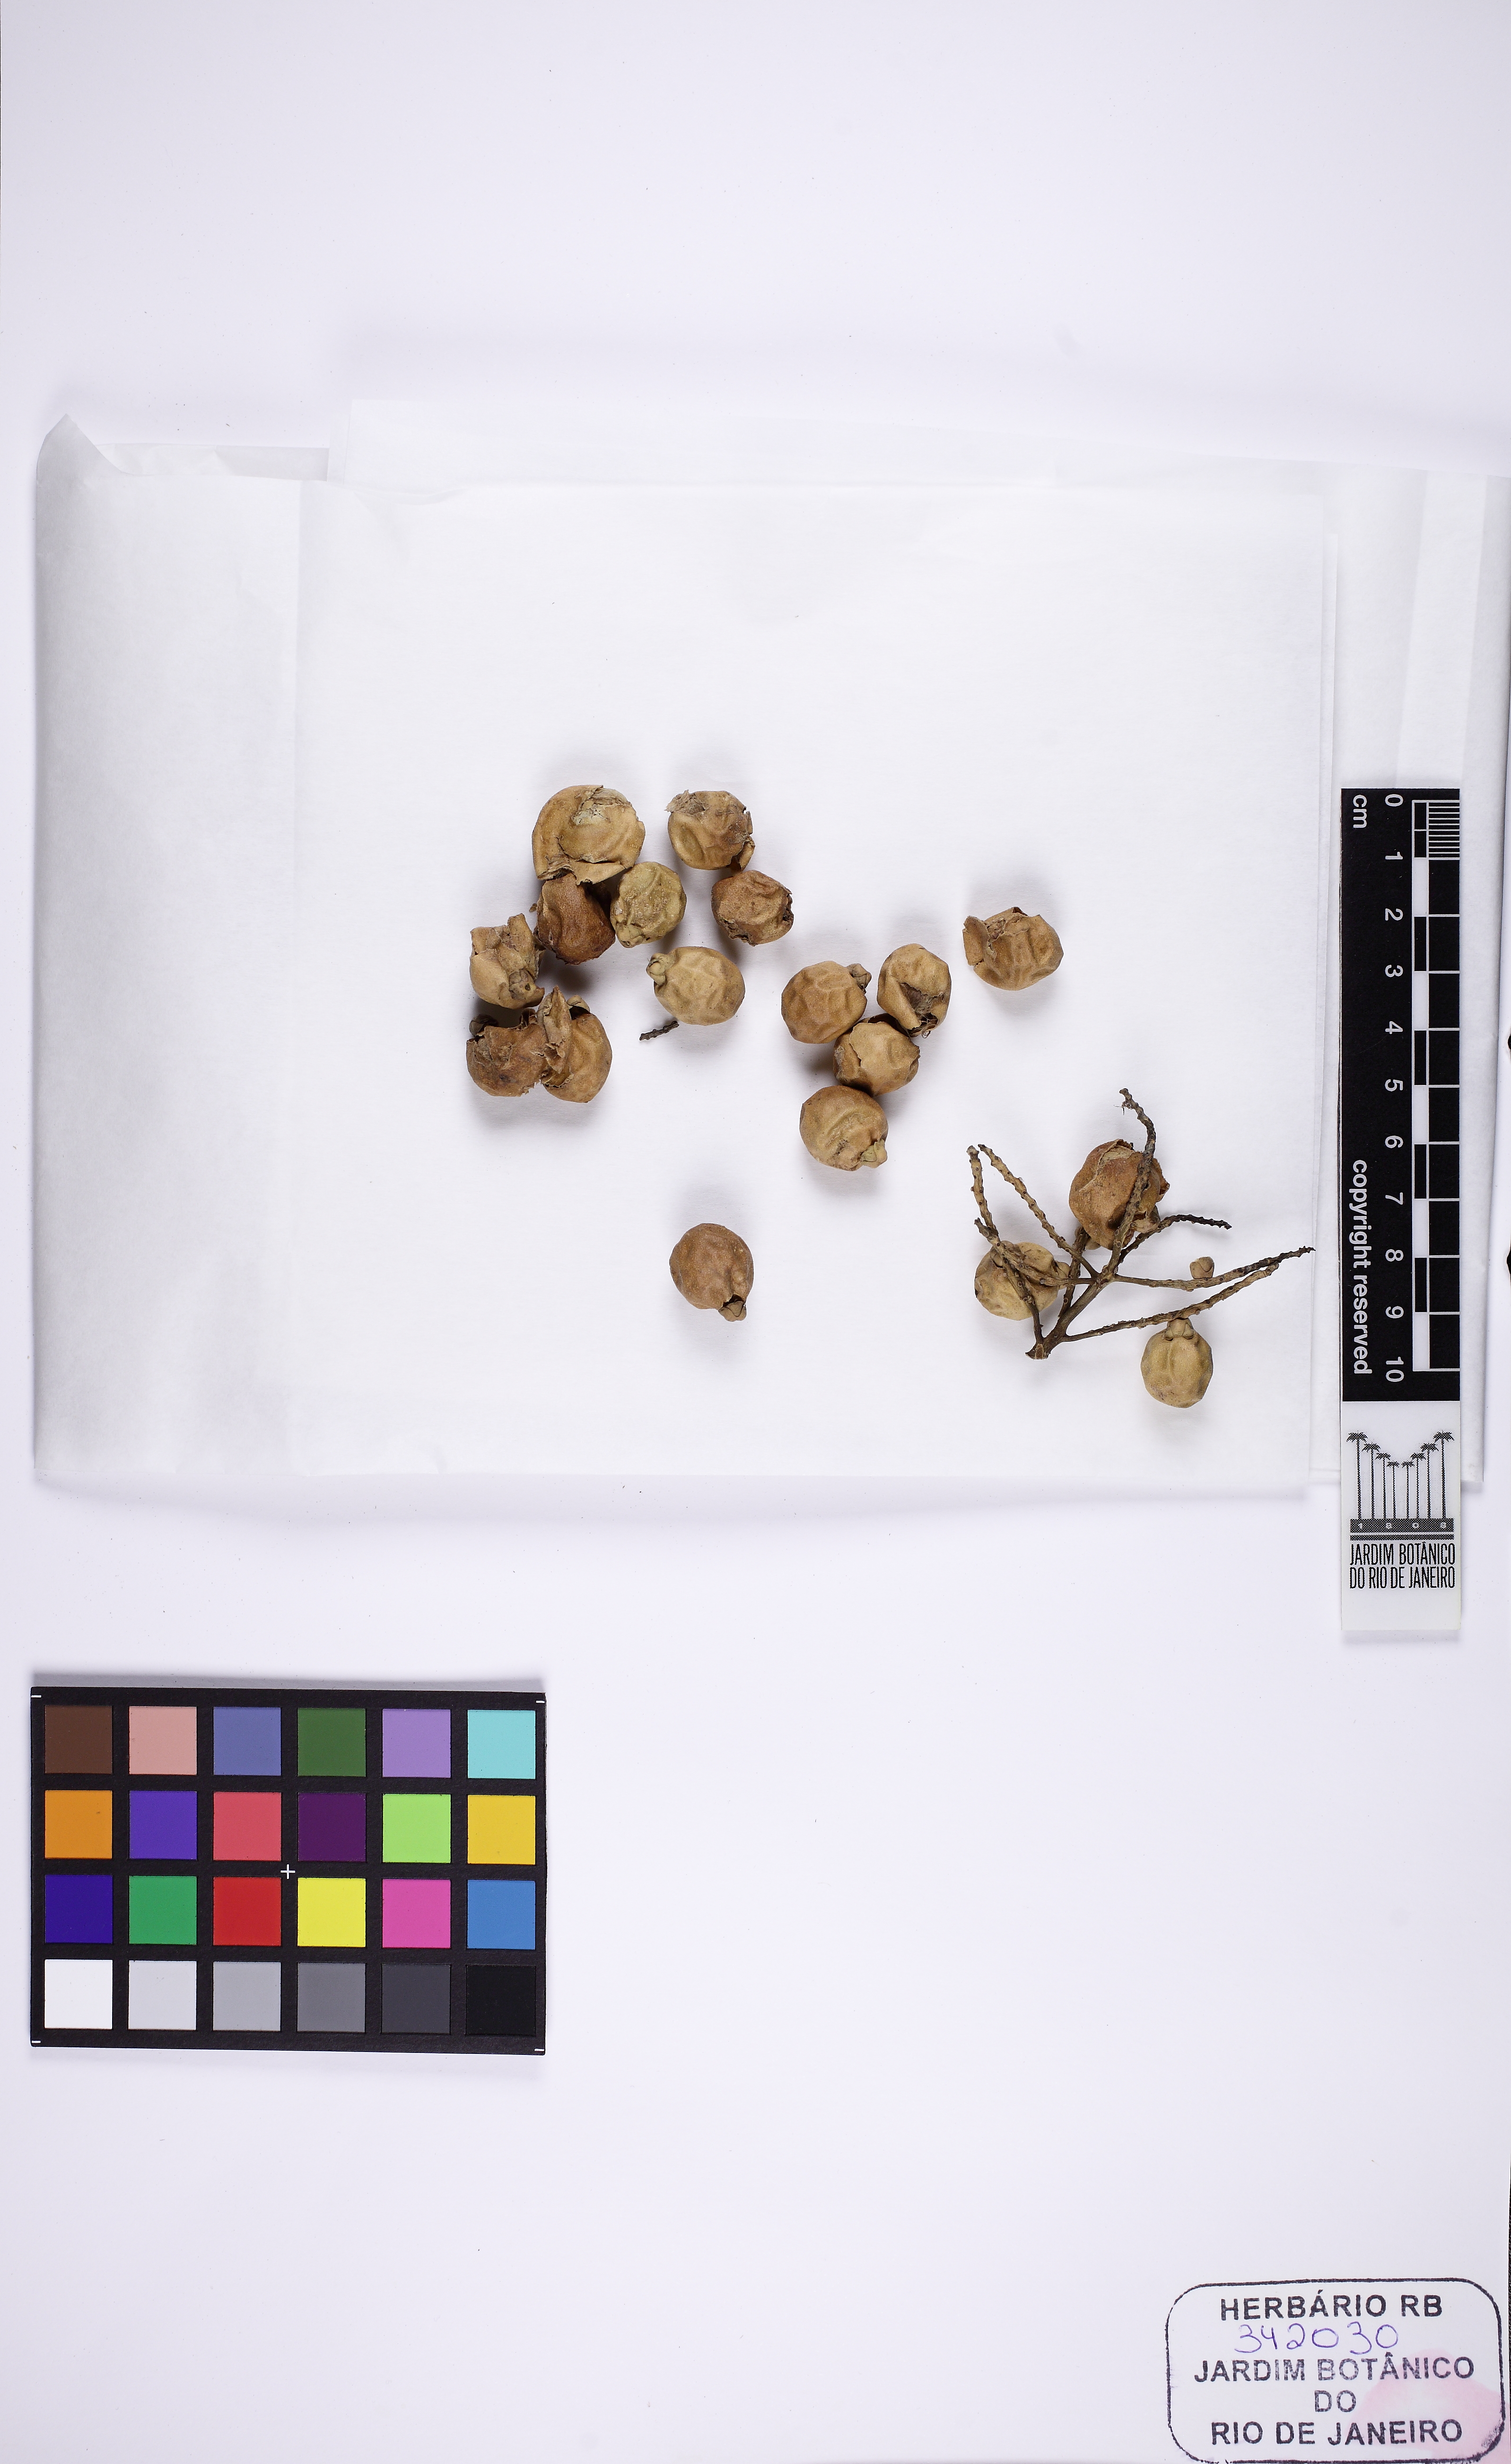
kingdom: Plantae
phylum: Tracheophyta
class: Liliopsida
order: Arecales
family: Arecaceae
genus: Cryosophila
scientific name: Cryosophila nana
